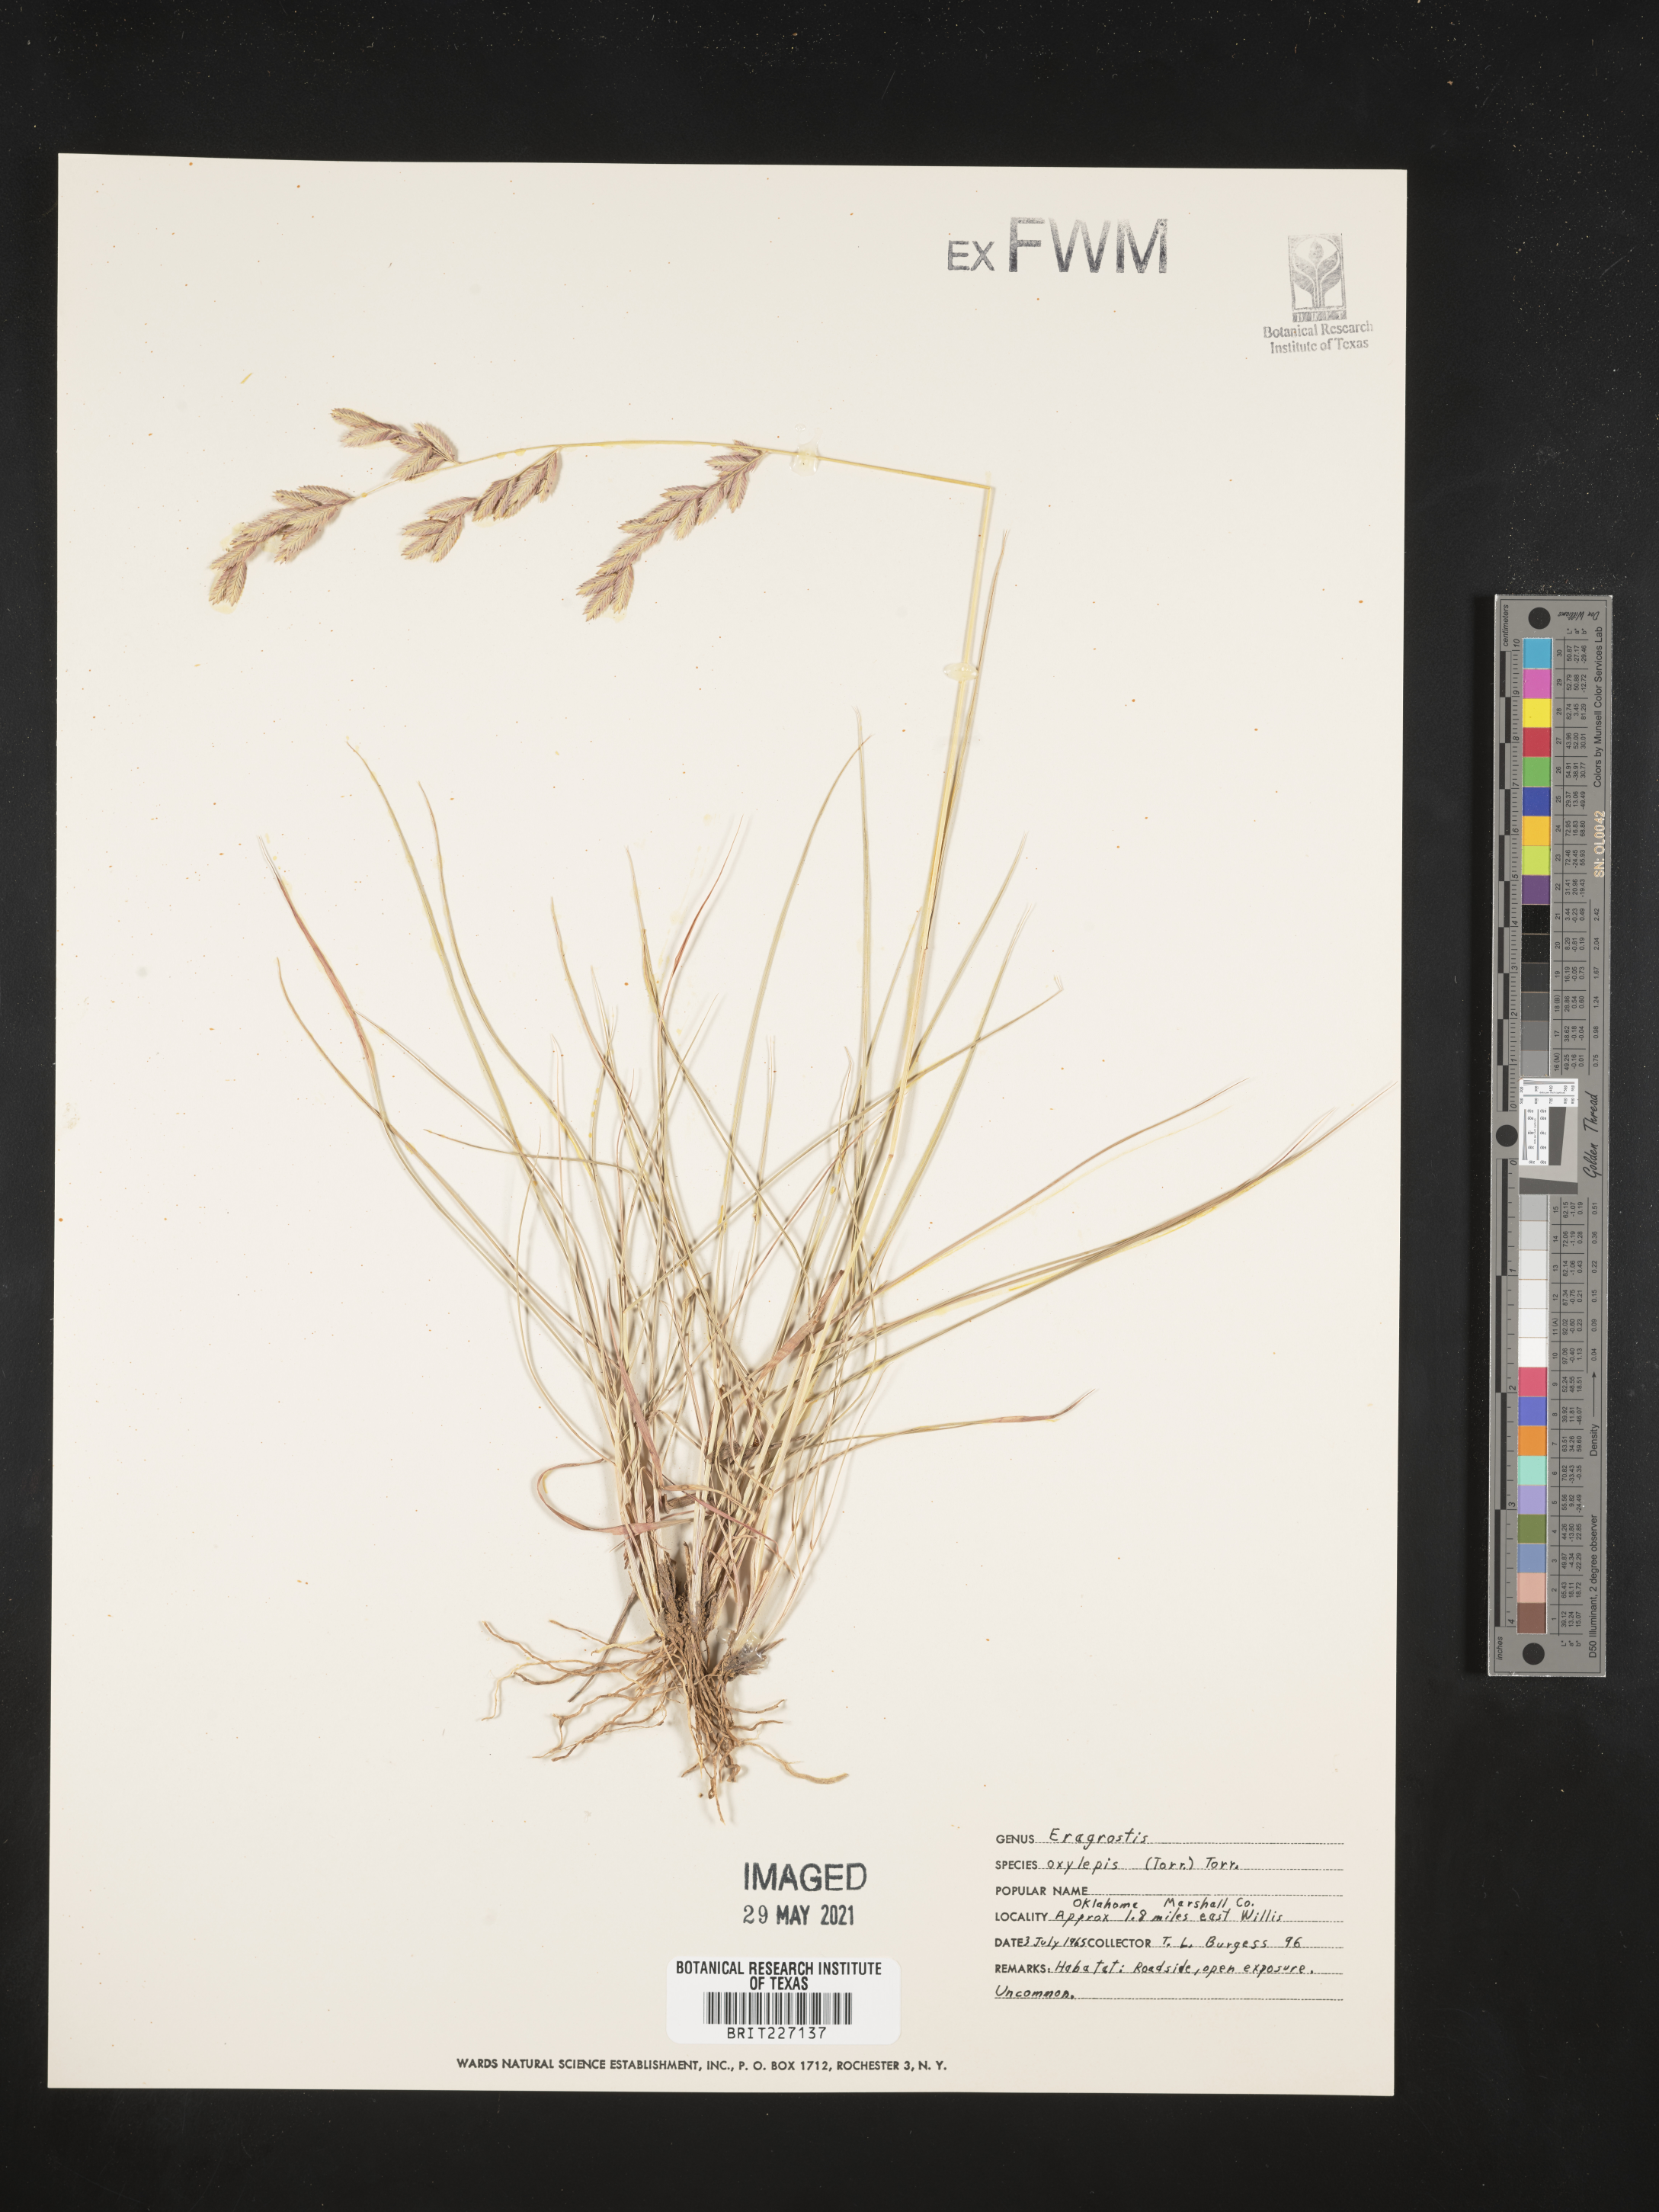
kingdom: Plantae
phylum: Tracheophyta
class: Liliopsida
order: Poales
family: Poaceae
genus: Eragrostis
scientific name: Eragrostis secundiflora
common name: Red love grass
